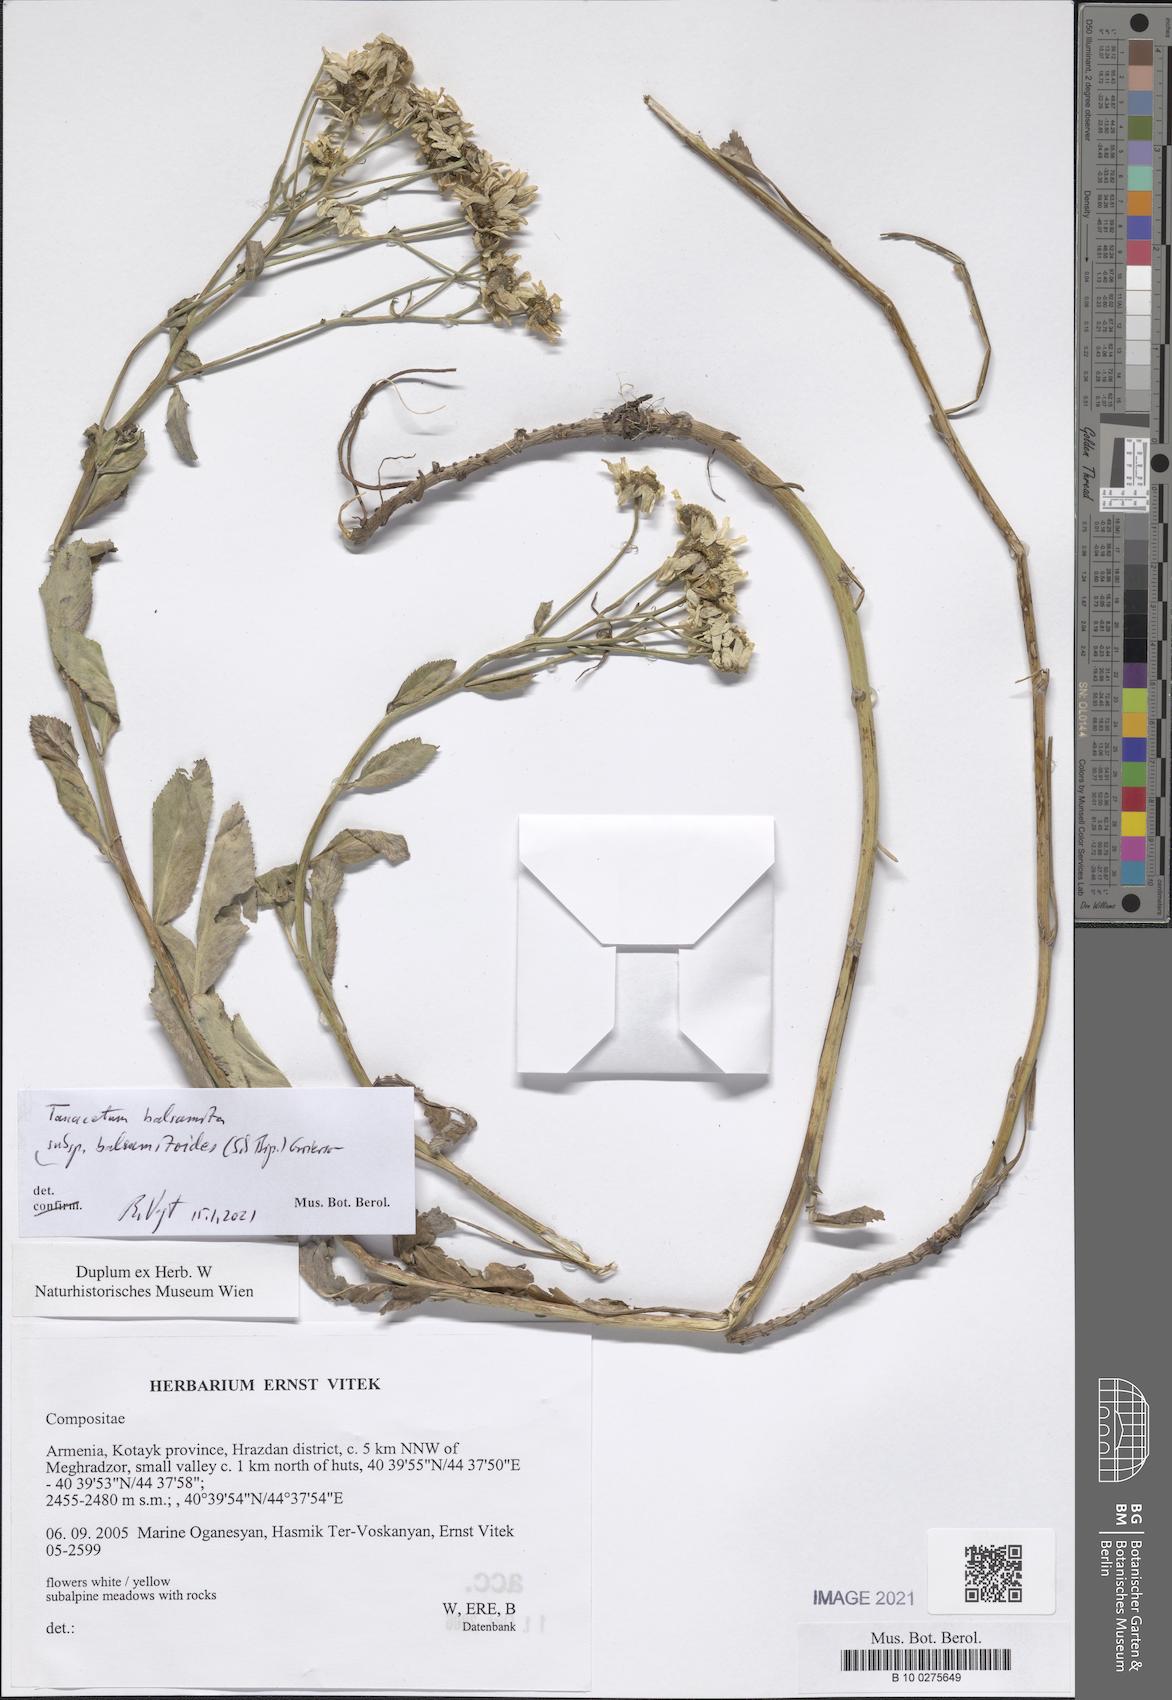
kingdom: Plantae
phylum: Tracheophyta
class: Magnoliopsida
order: Asterales
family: Asteraceae
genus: Tanacetum
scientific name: Tanacetum balsamitoides
